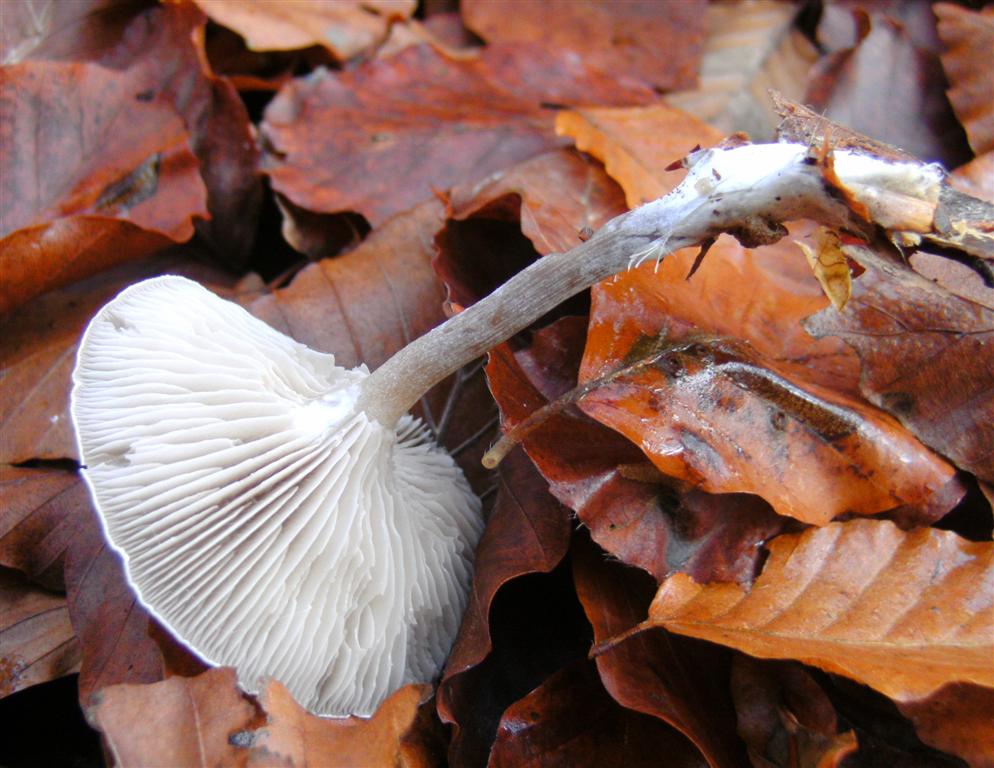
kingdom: Fungi
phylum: Basidiomycota
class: Agaricomycetes
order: Agaricales
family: Tricholomataceae
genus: Clitocybe
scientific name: Clitocybe metachroa
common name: grå tragthat
